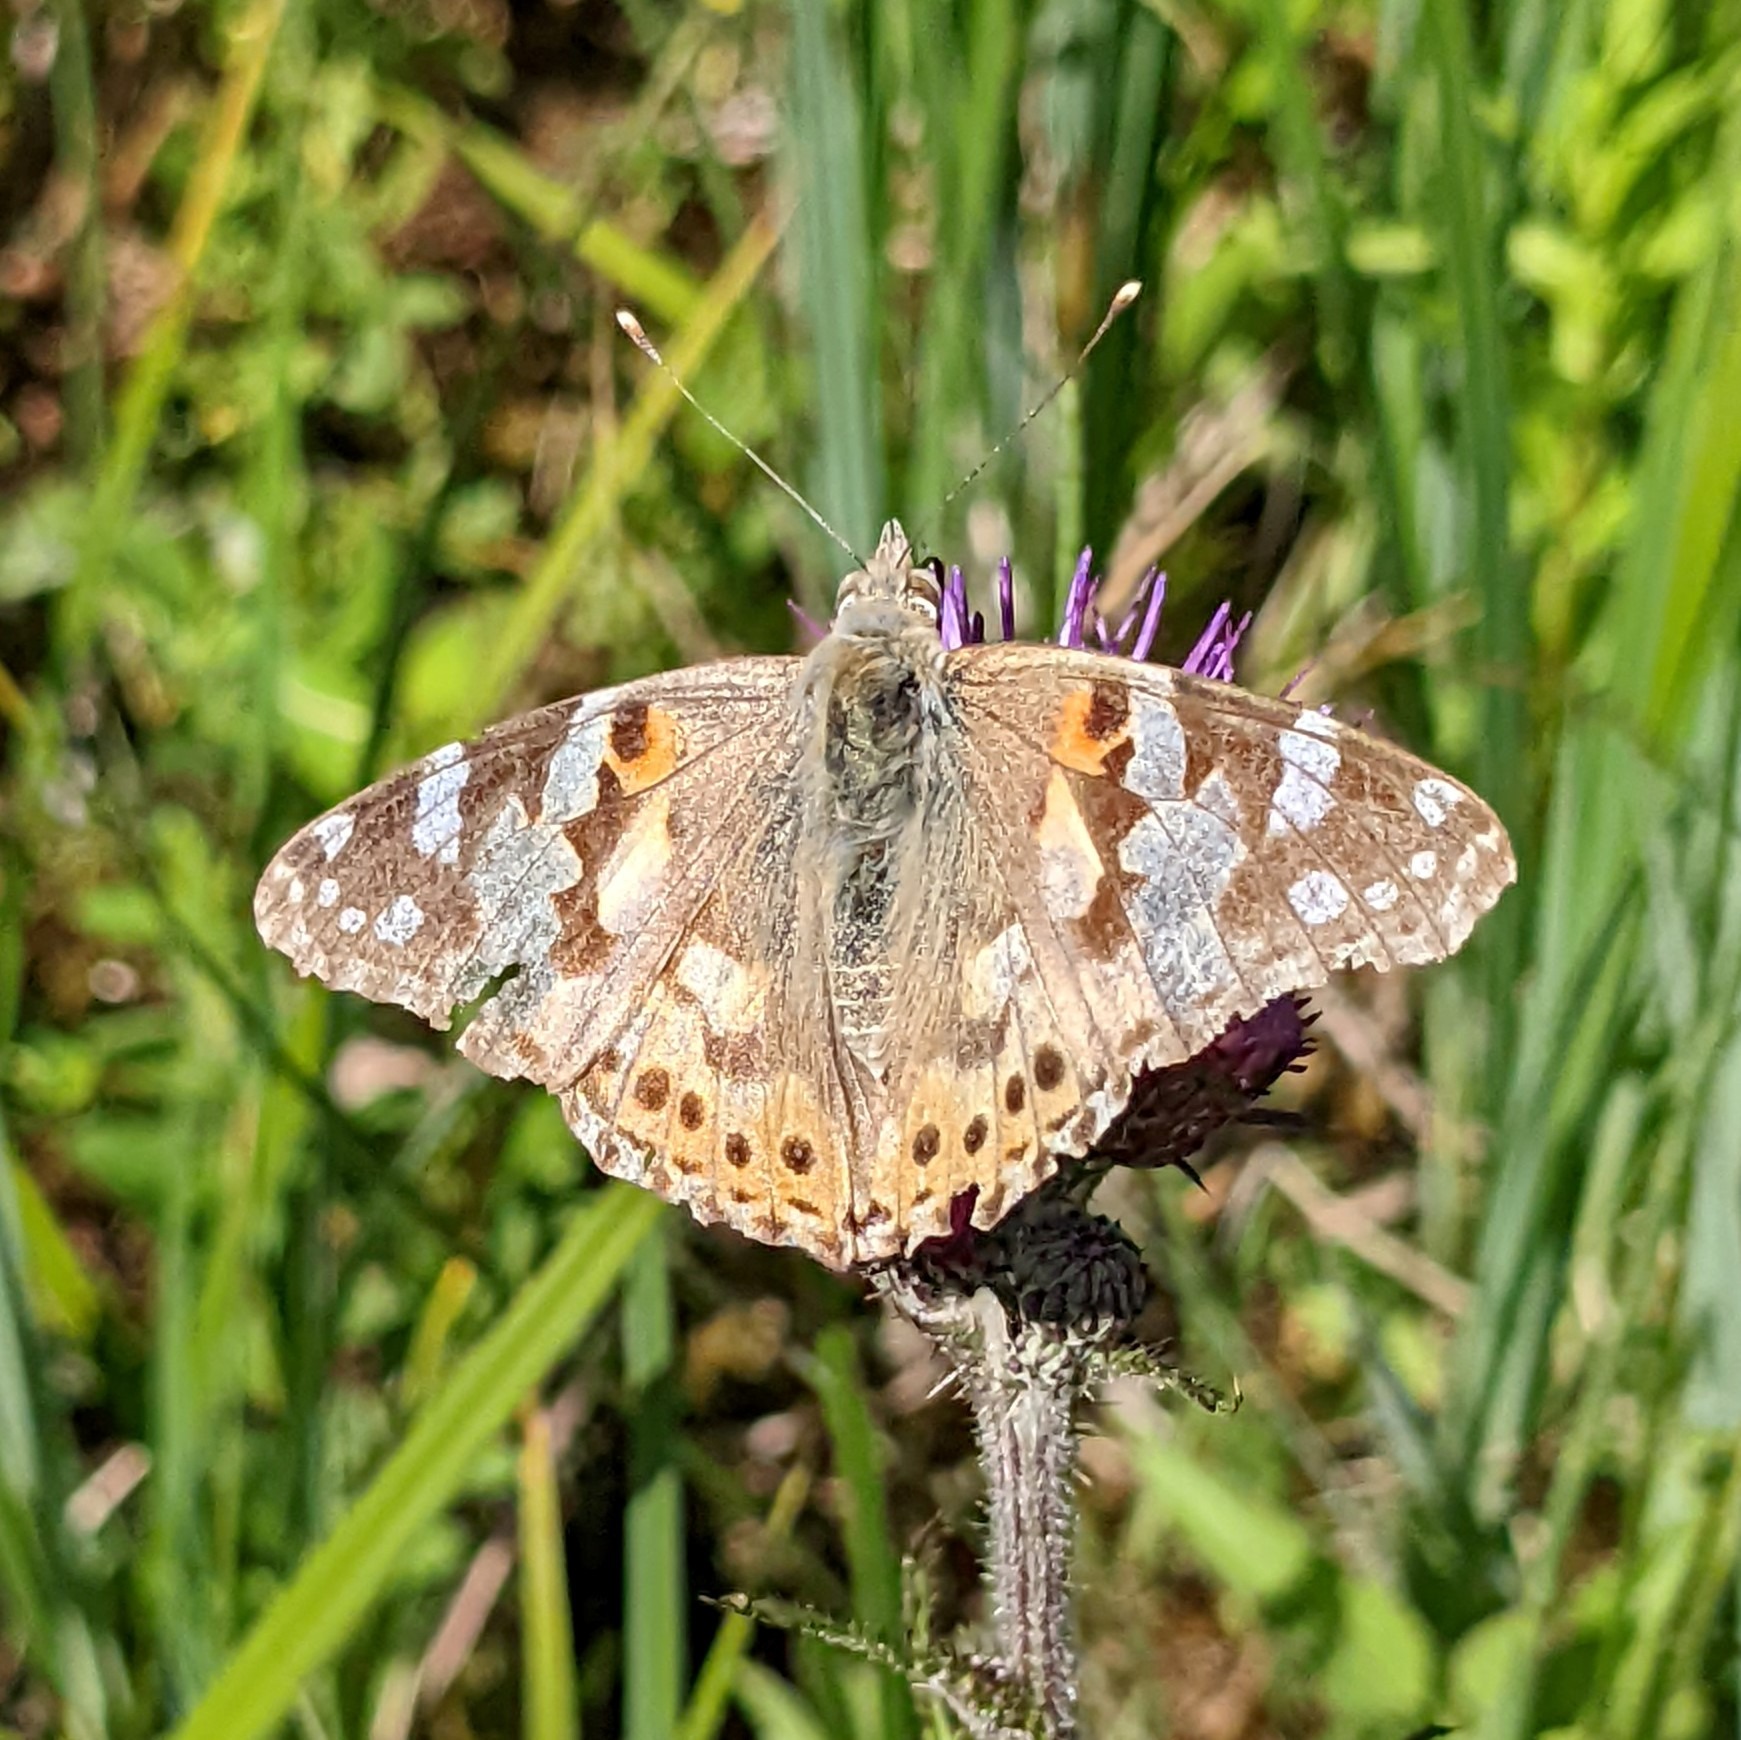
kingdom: Animalia
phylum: Arthropoda
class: Insecta
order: Lepidoptera
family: Nymphalidae
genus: Vanessa
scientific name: Vanessa cardui
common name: Tidselsommerfugl
